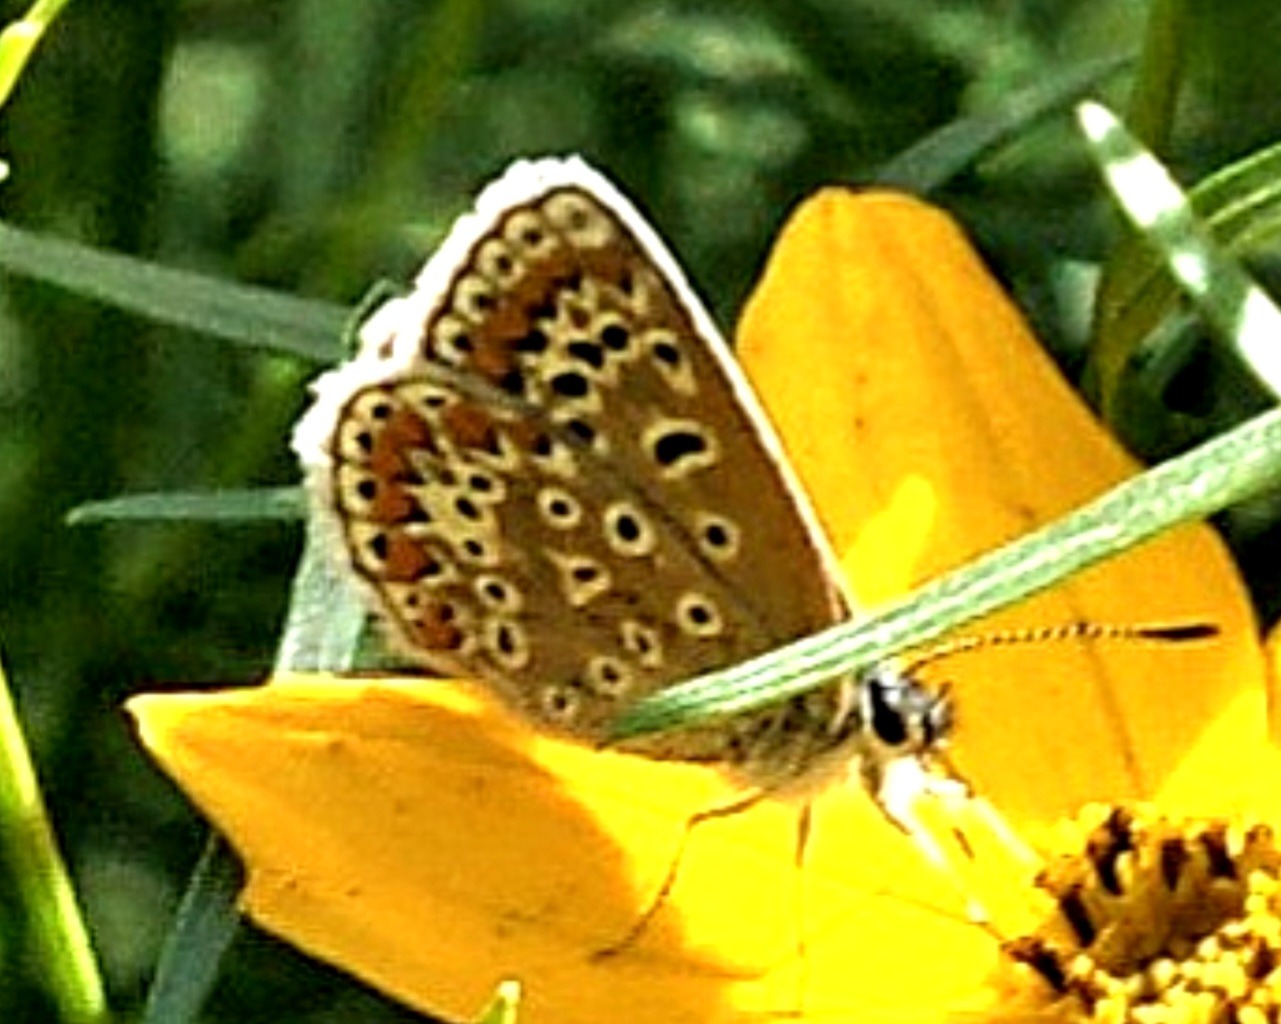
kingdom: Animalia
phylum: Arthropoda
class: Insecta
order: Lepidoptera
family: Lycaenidae
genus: Polyommatus
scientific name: Polyommatus icarus
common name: Almindelig blåfugl
